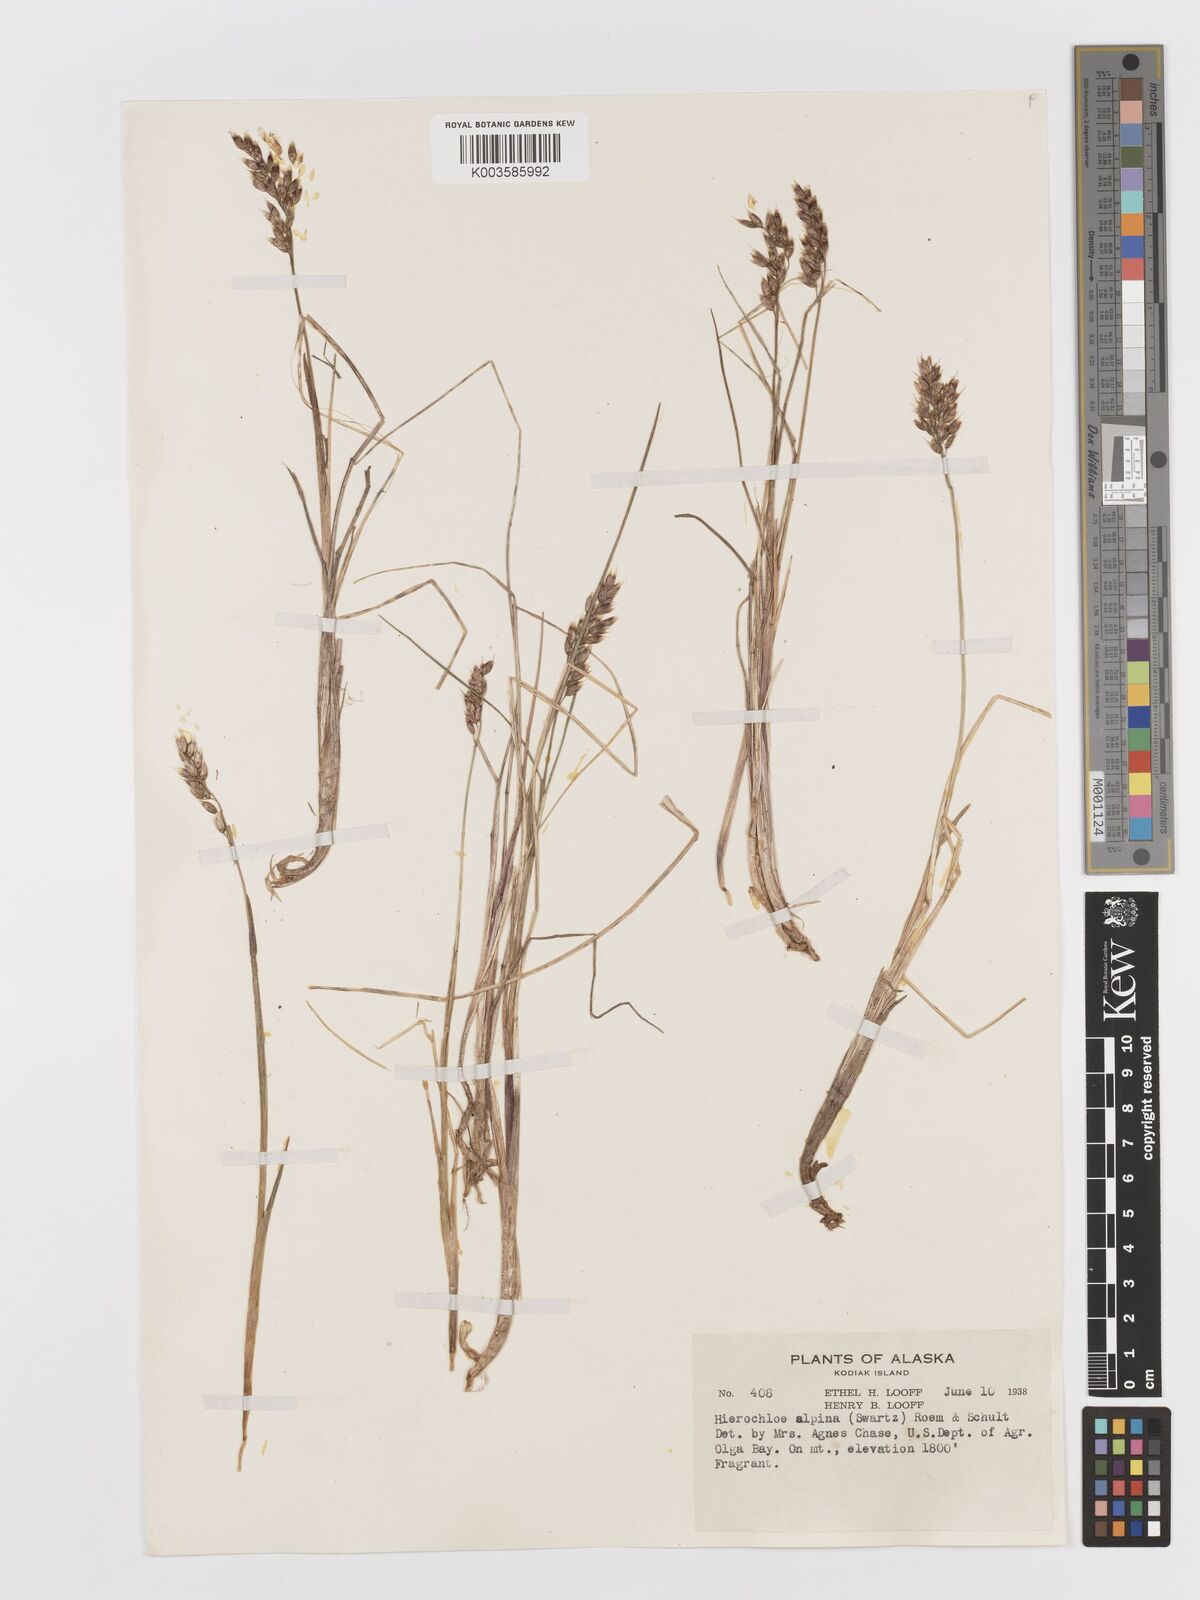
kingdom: Plantae
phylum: Tracheophyta
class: Liliopsida
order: Poales
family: Poaceae
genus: Anthoxanthum
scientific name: Anthoxanthum monticola
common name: Alpine sweetgrass
